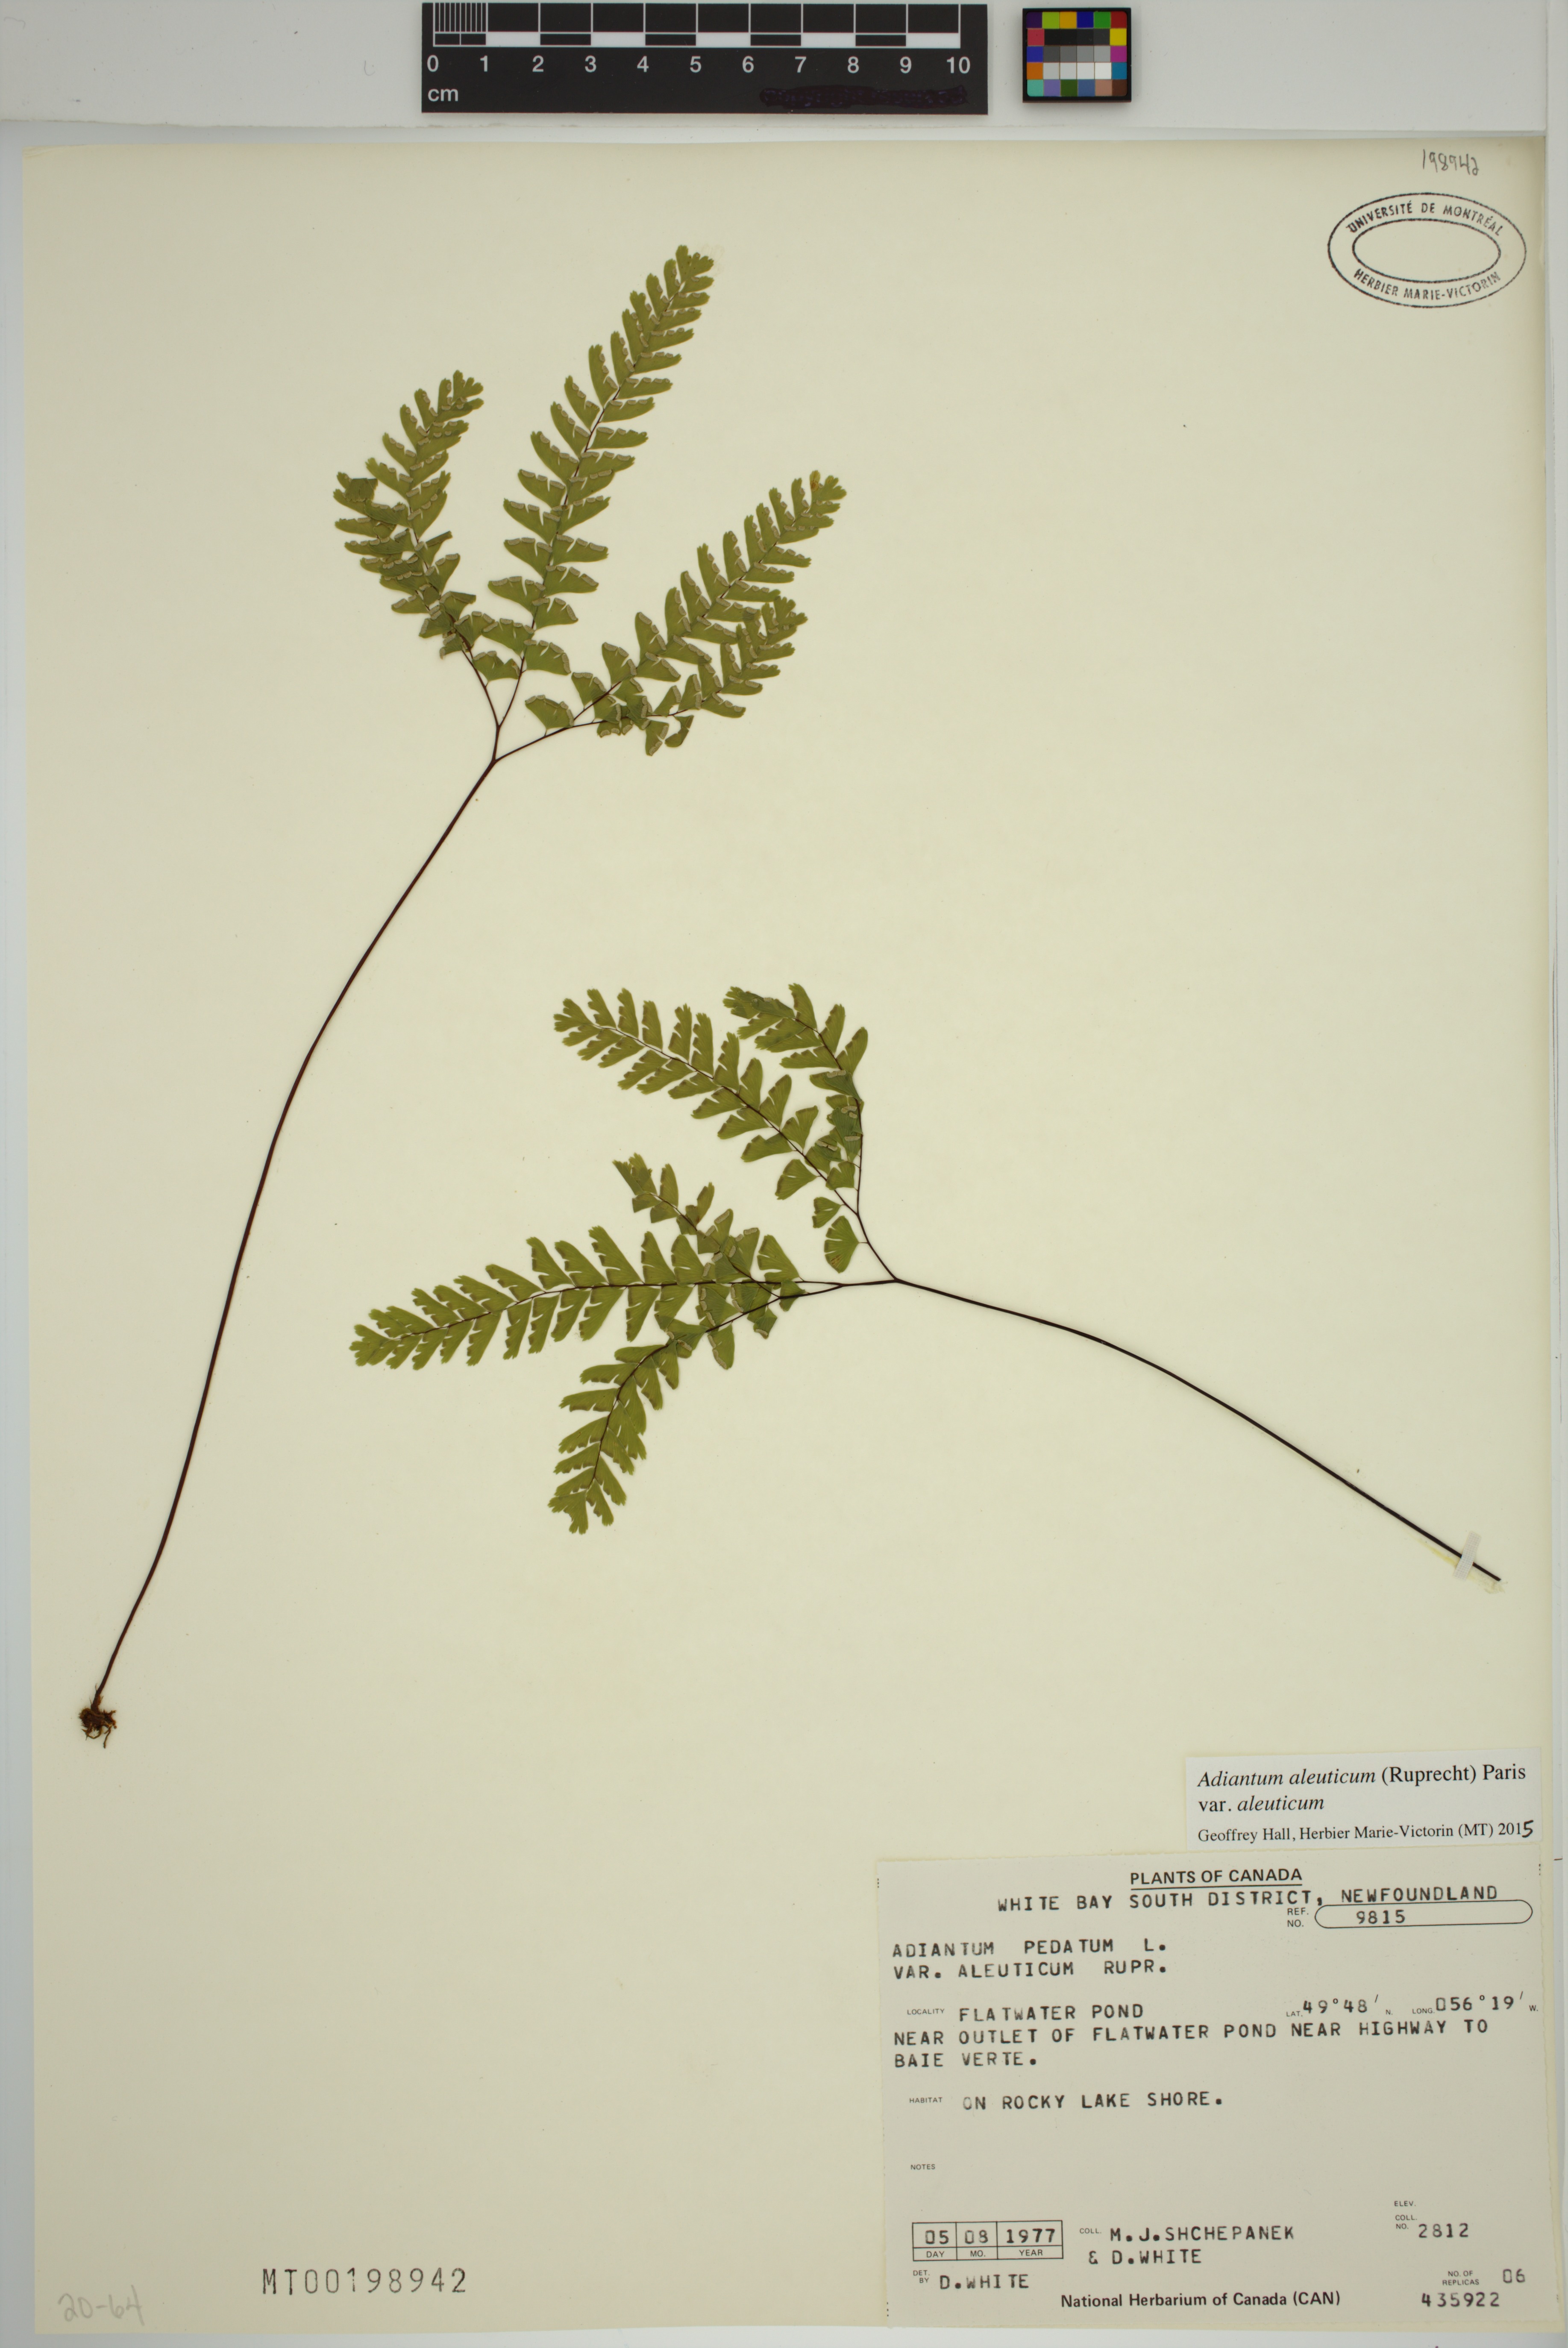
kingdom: Plantae
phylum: Tracheophyta
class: Polypodiopsida
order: Polypodiales
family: Pteridaceae
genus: Adiantum
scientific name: Adiantum aleuticum
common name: Aleutian maidenhair fern
